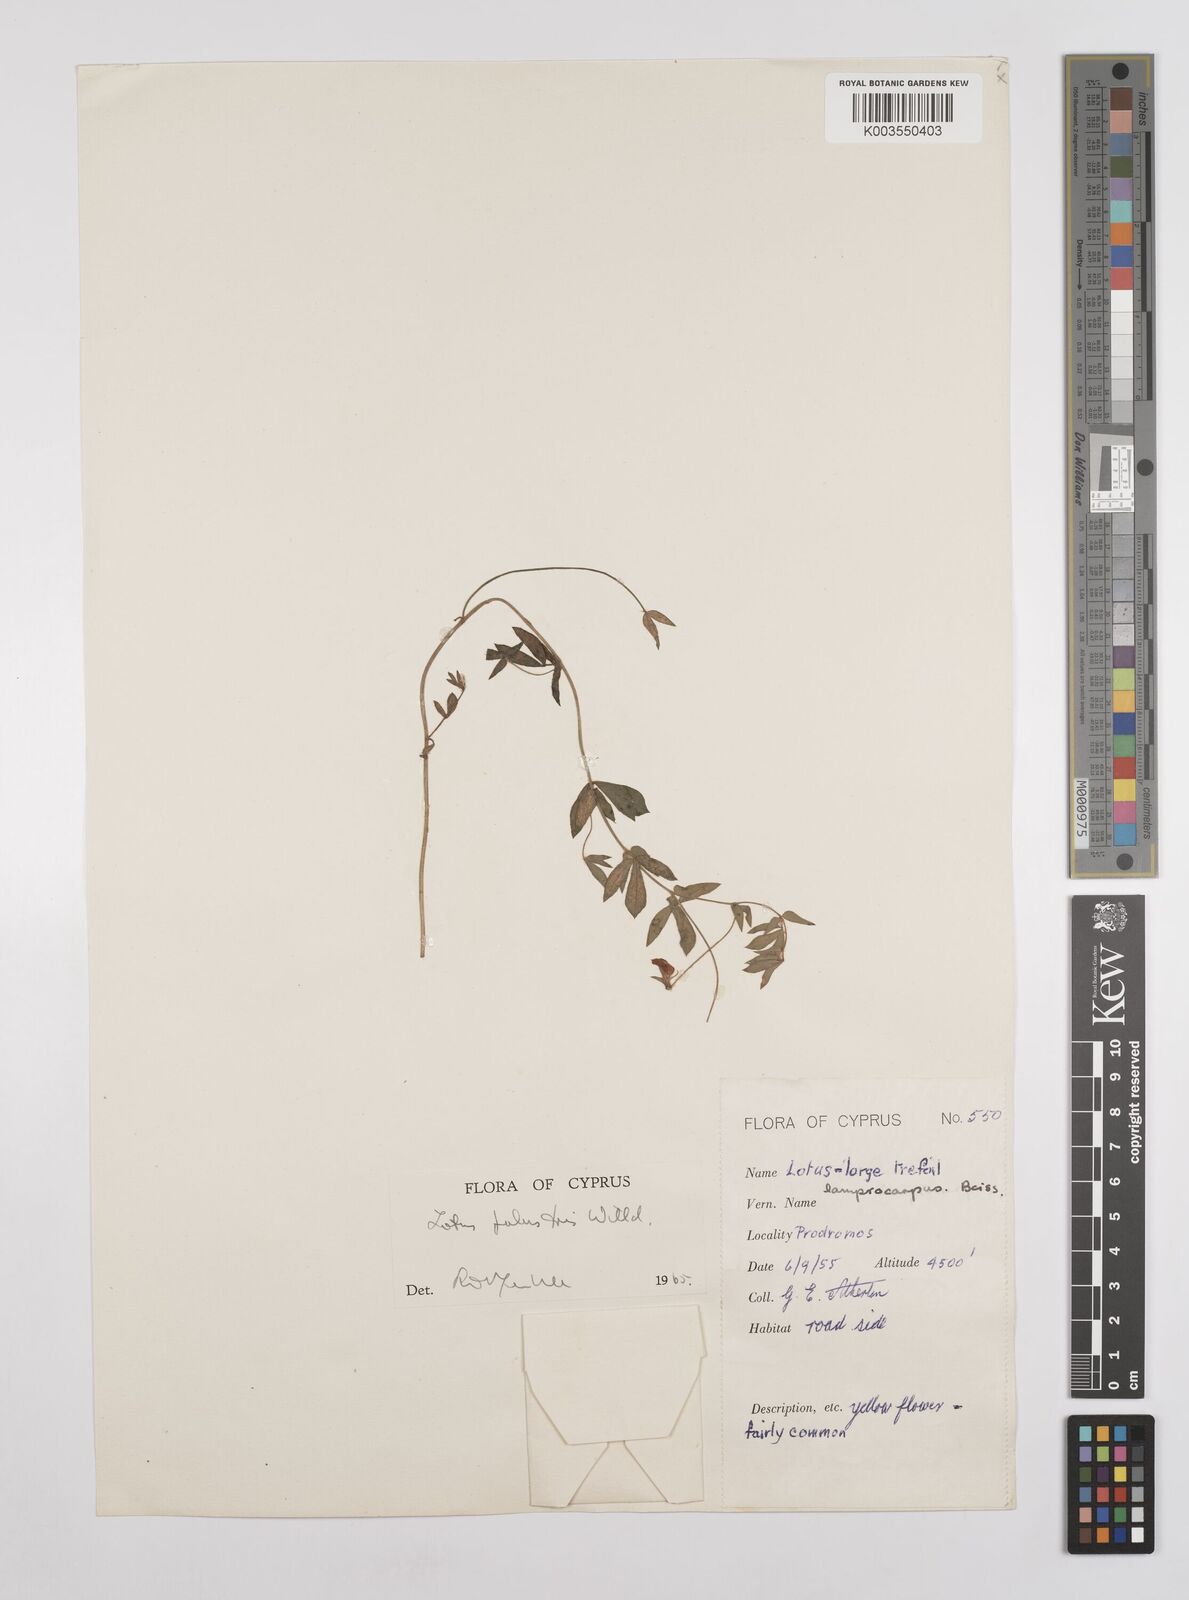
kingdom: Plantae
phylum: Tracheophyta
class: Magnoliopsida
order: Fabales
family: Fabaceae
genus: Lotus
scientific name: Lotus palustris
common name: Large birds-foot trefoil
